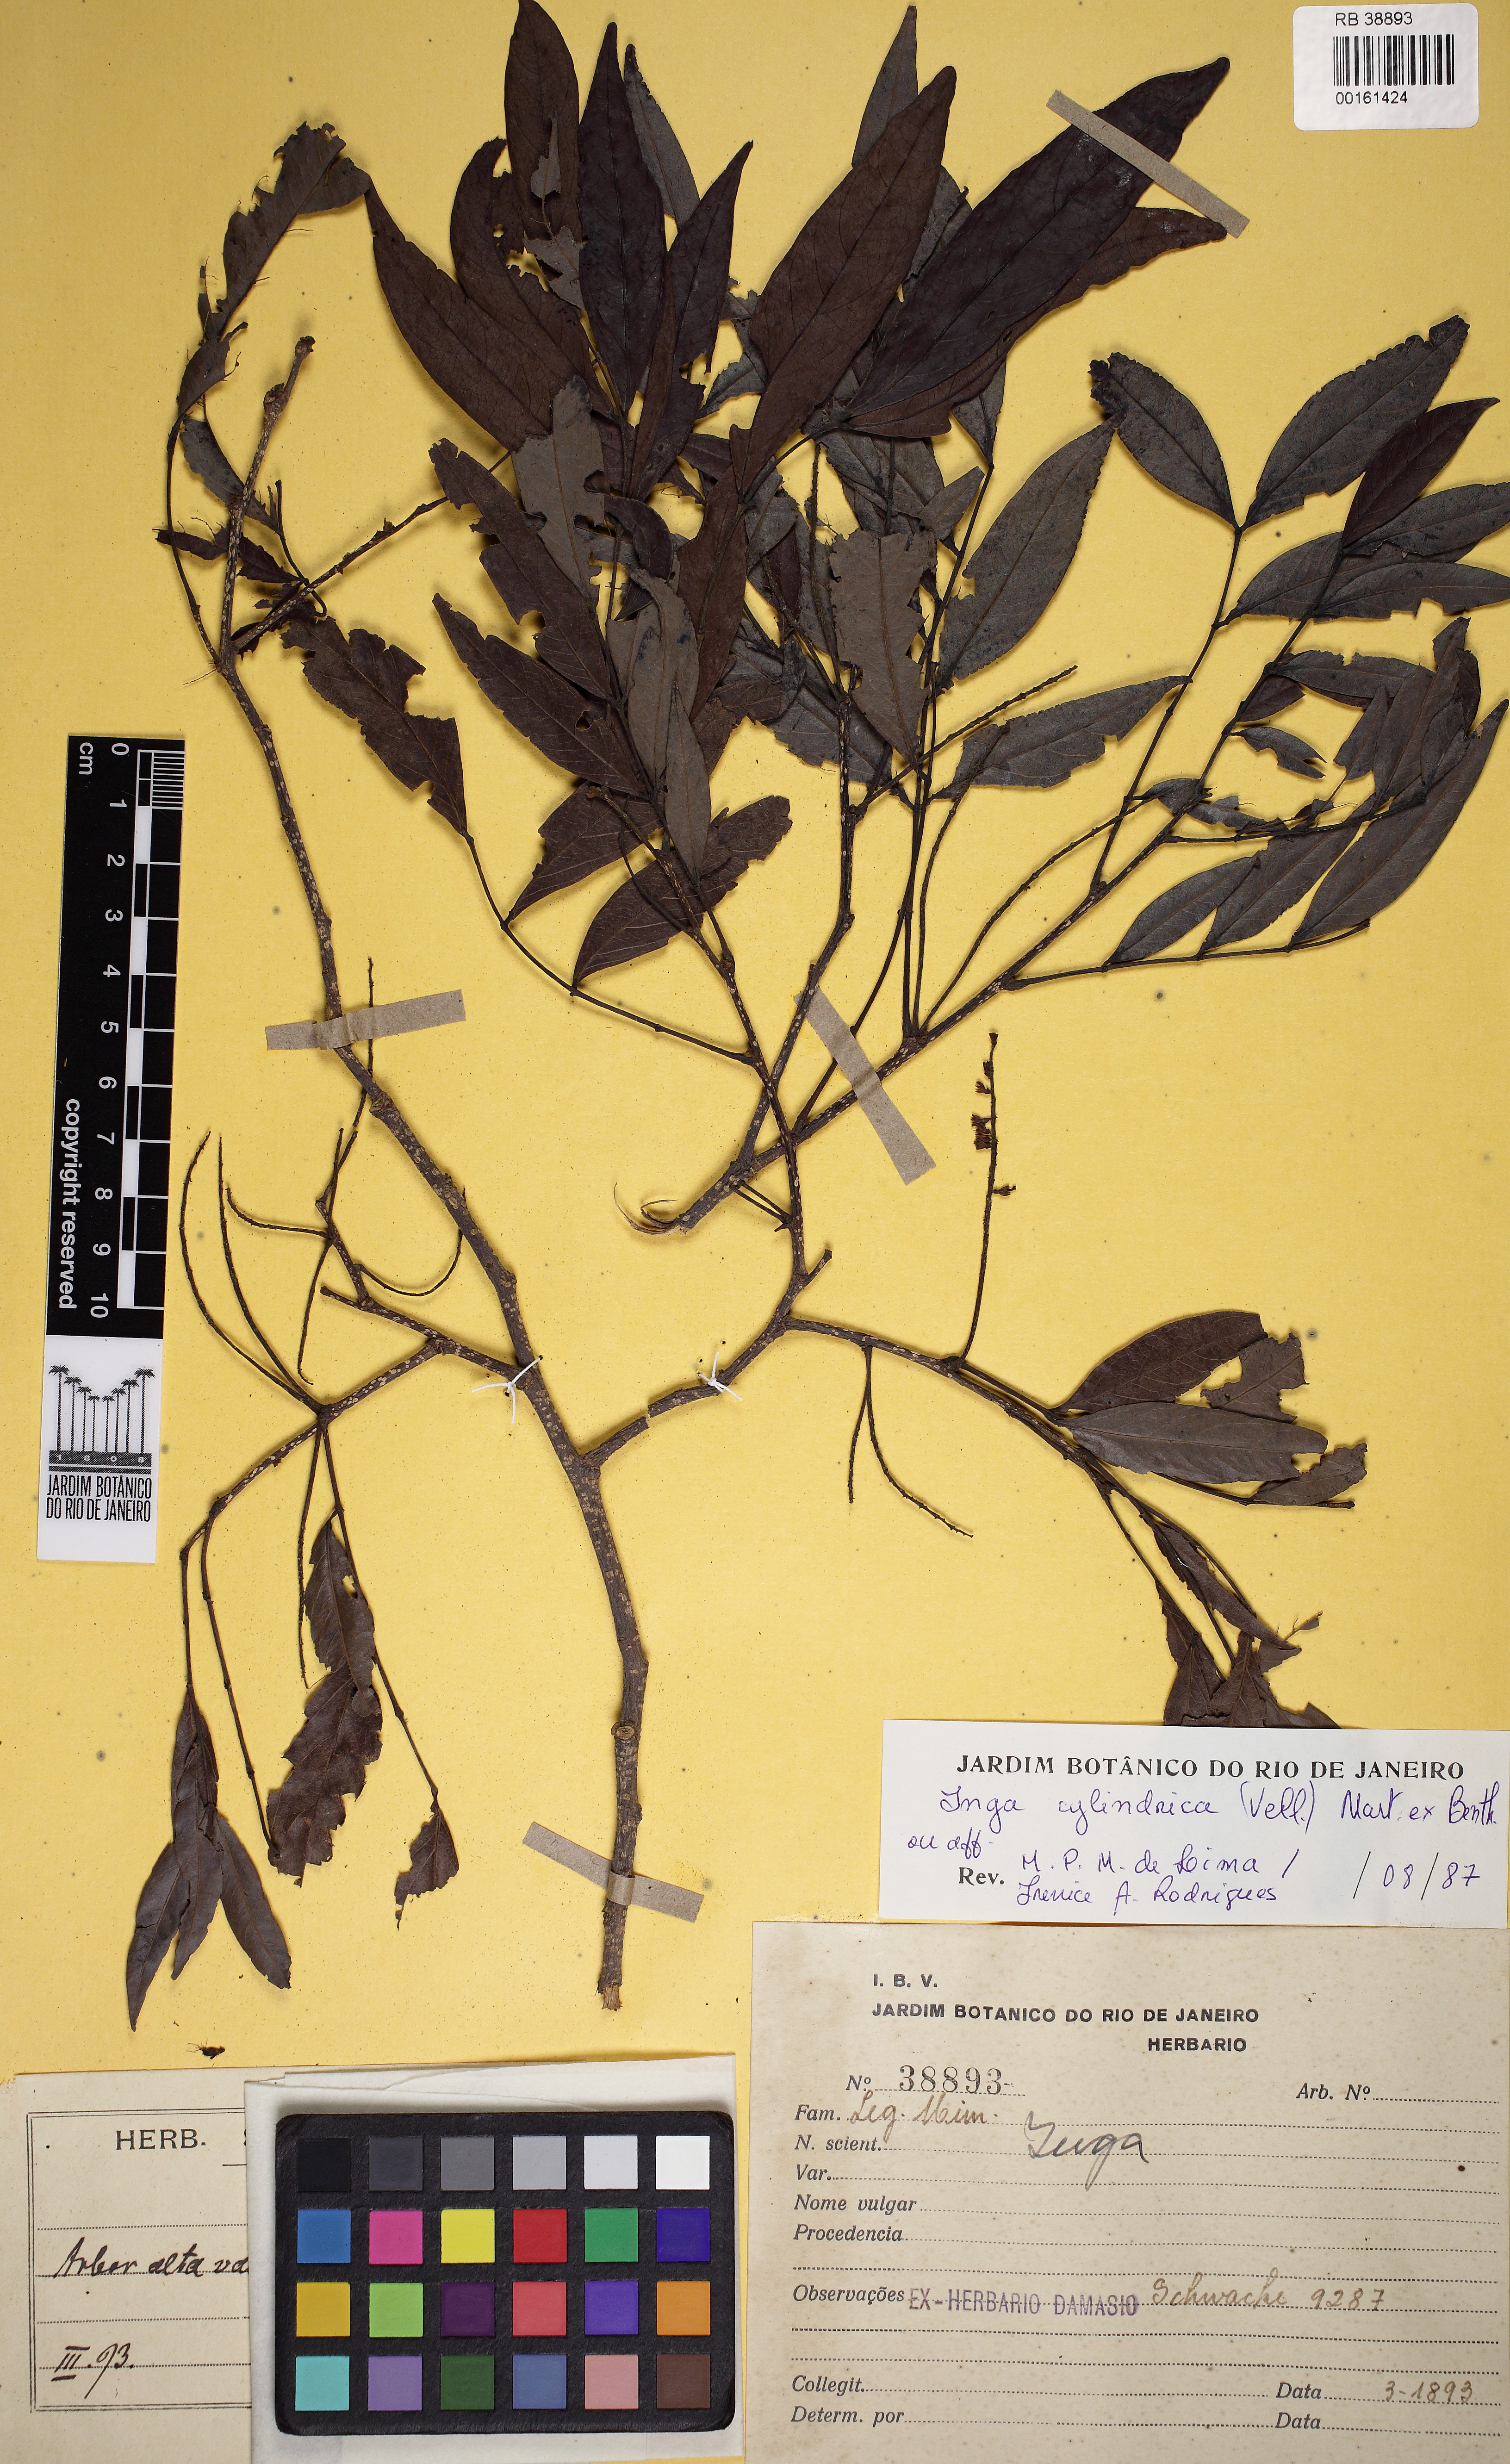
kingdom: Plantae
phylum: Tracheophyta
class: Magnoliopsida
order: Fabales
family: Fabaceae
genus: Inga
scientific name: Inga cylindrica
